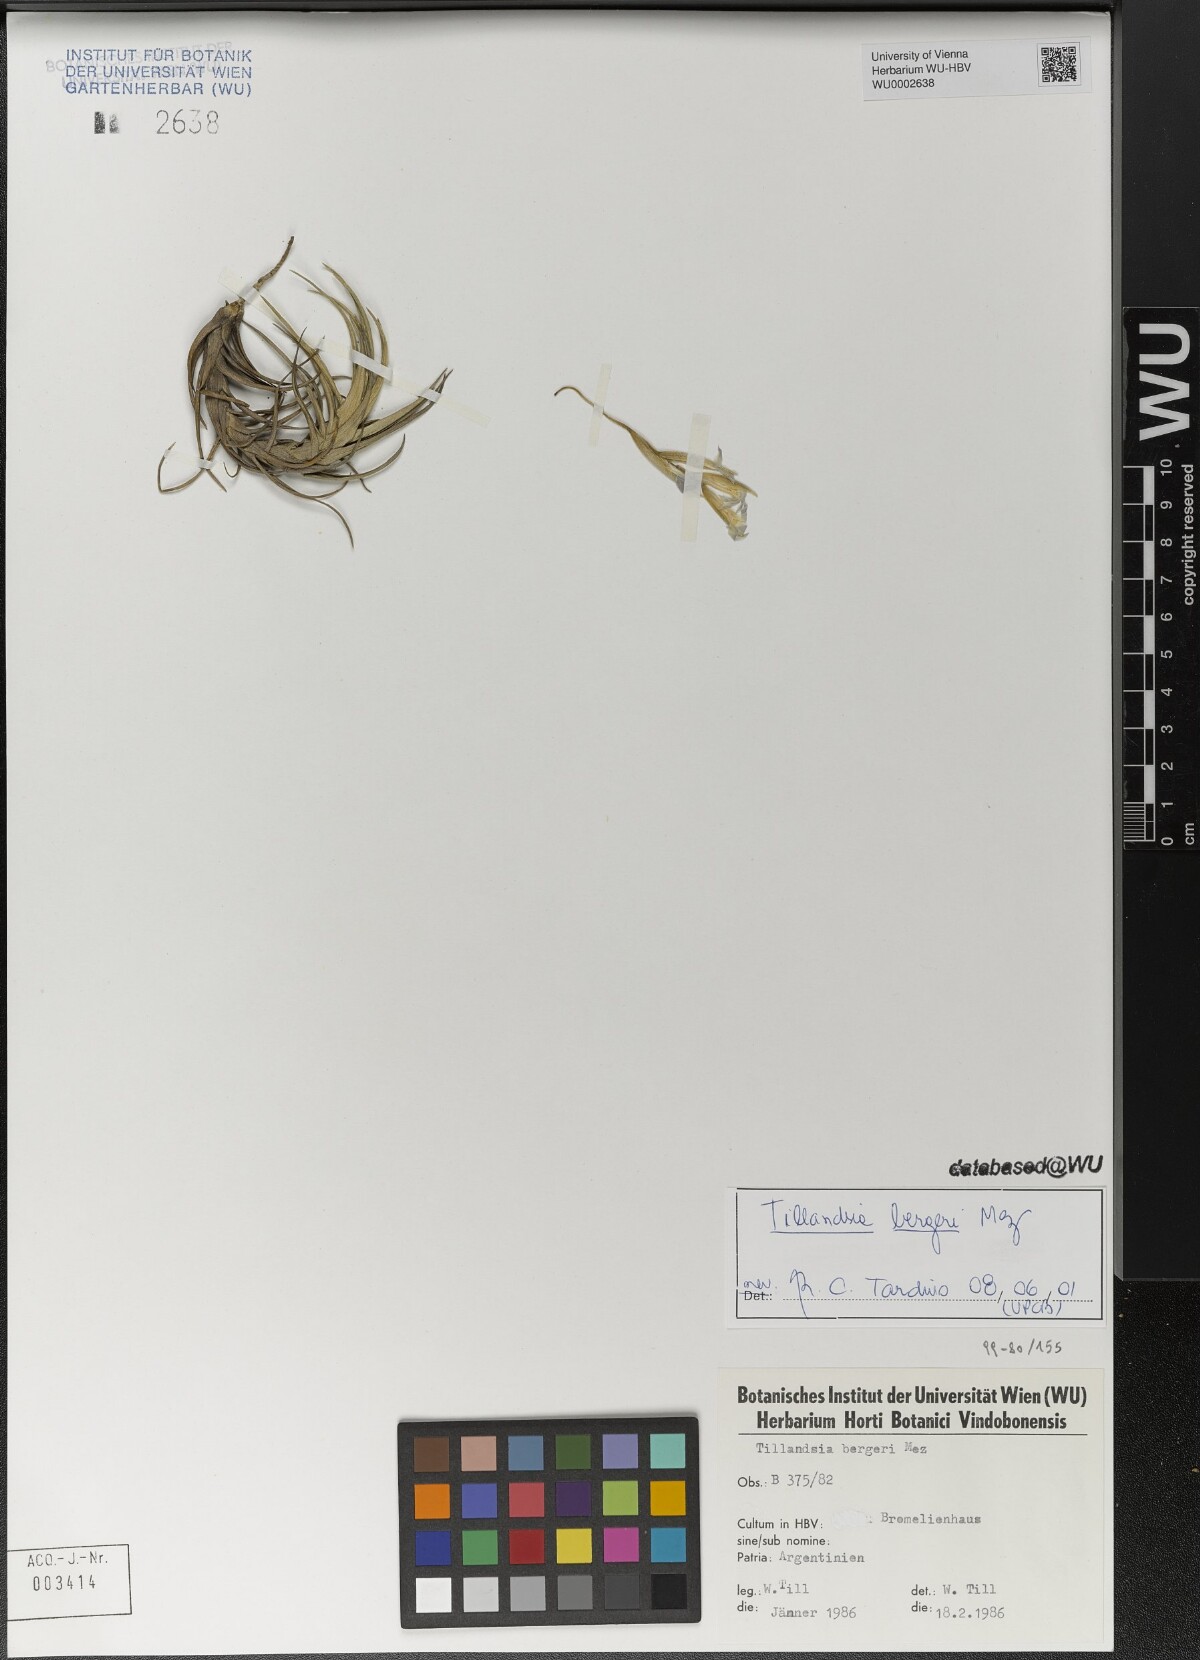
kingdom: Plantae
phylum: Tracheophyta
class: Liliopsida
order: Poales
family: Bromeliaceae
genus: Tillandsia
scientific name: Tillandsia bergeri
